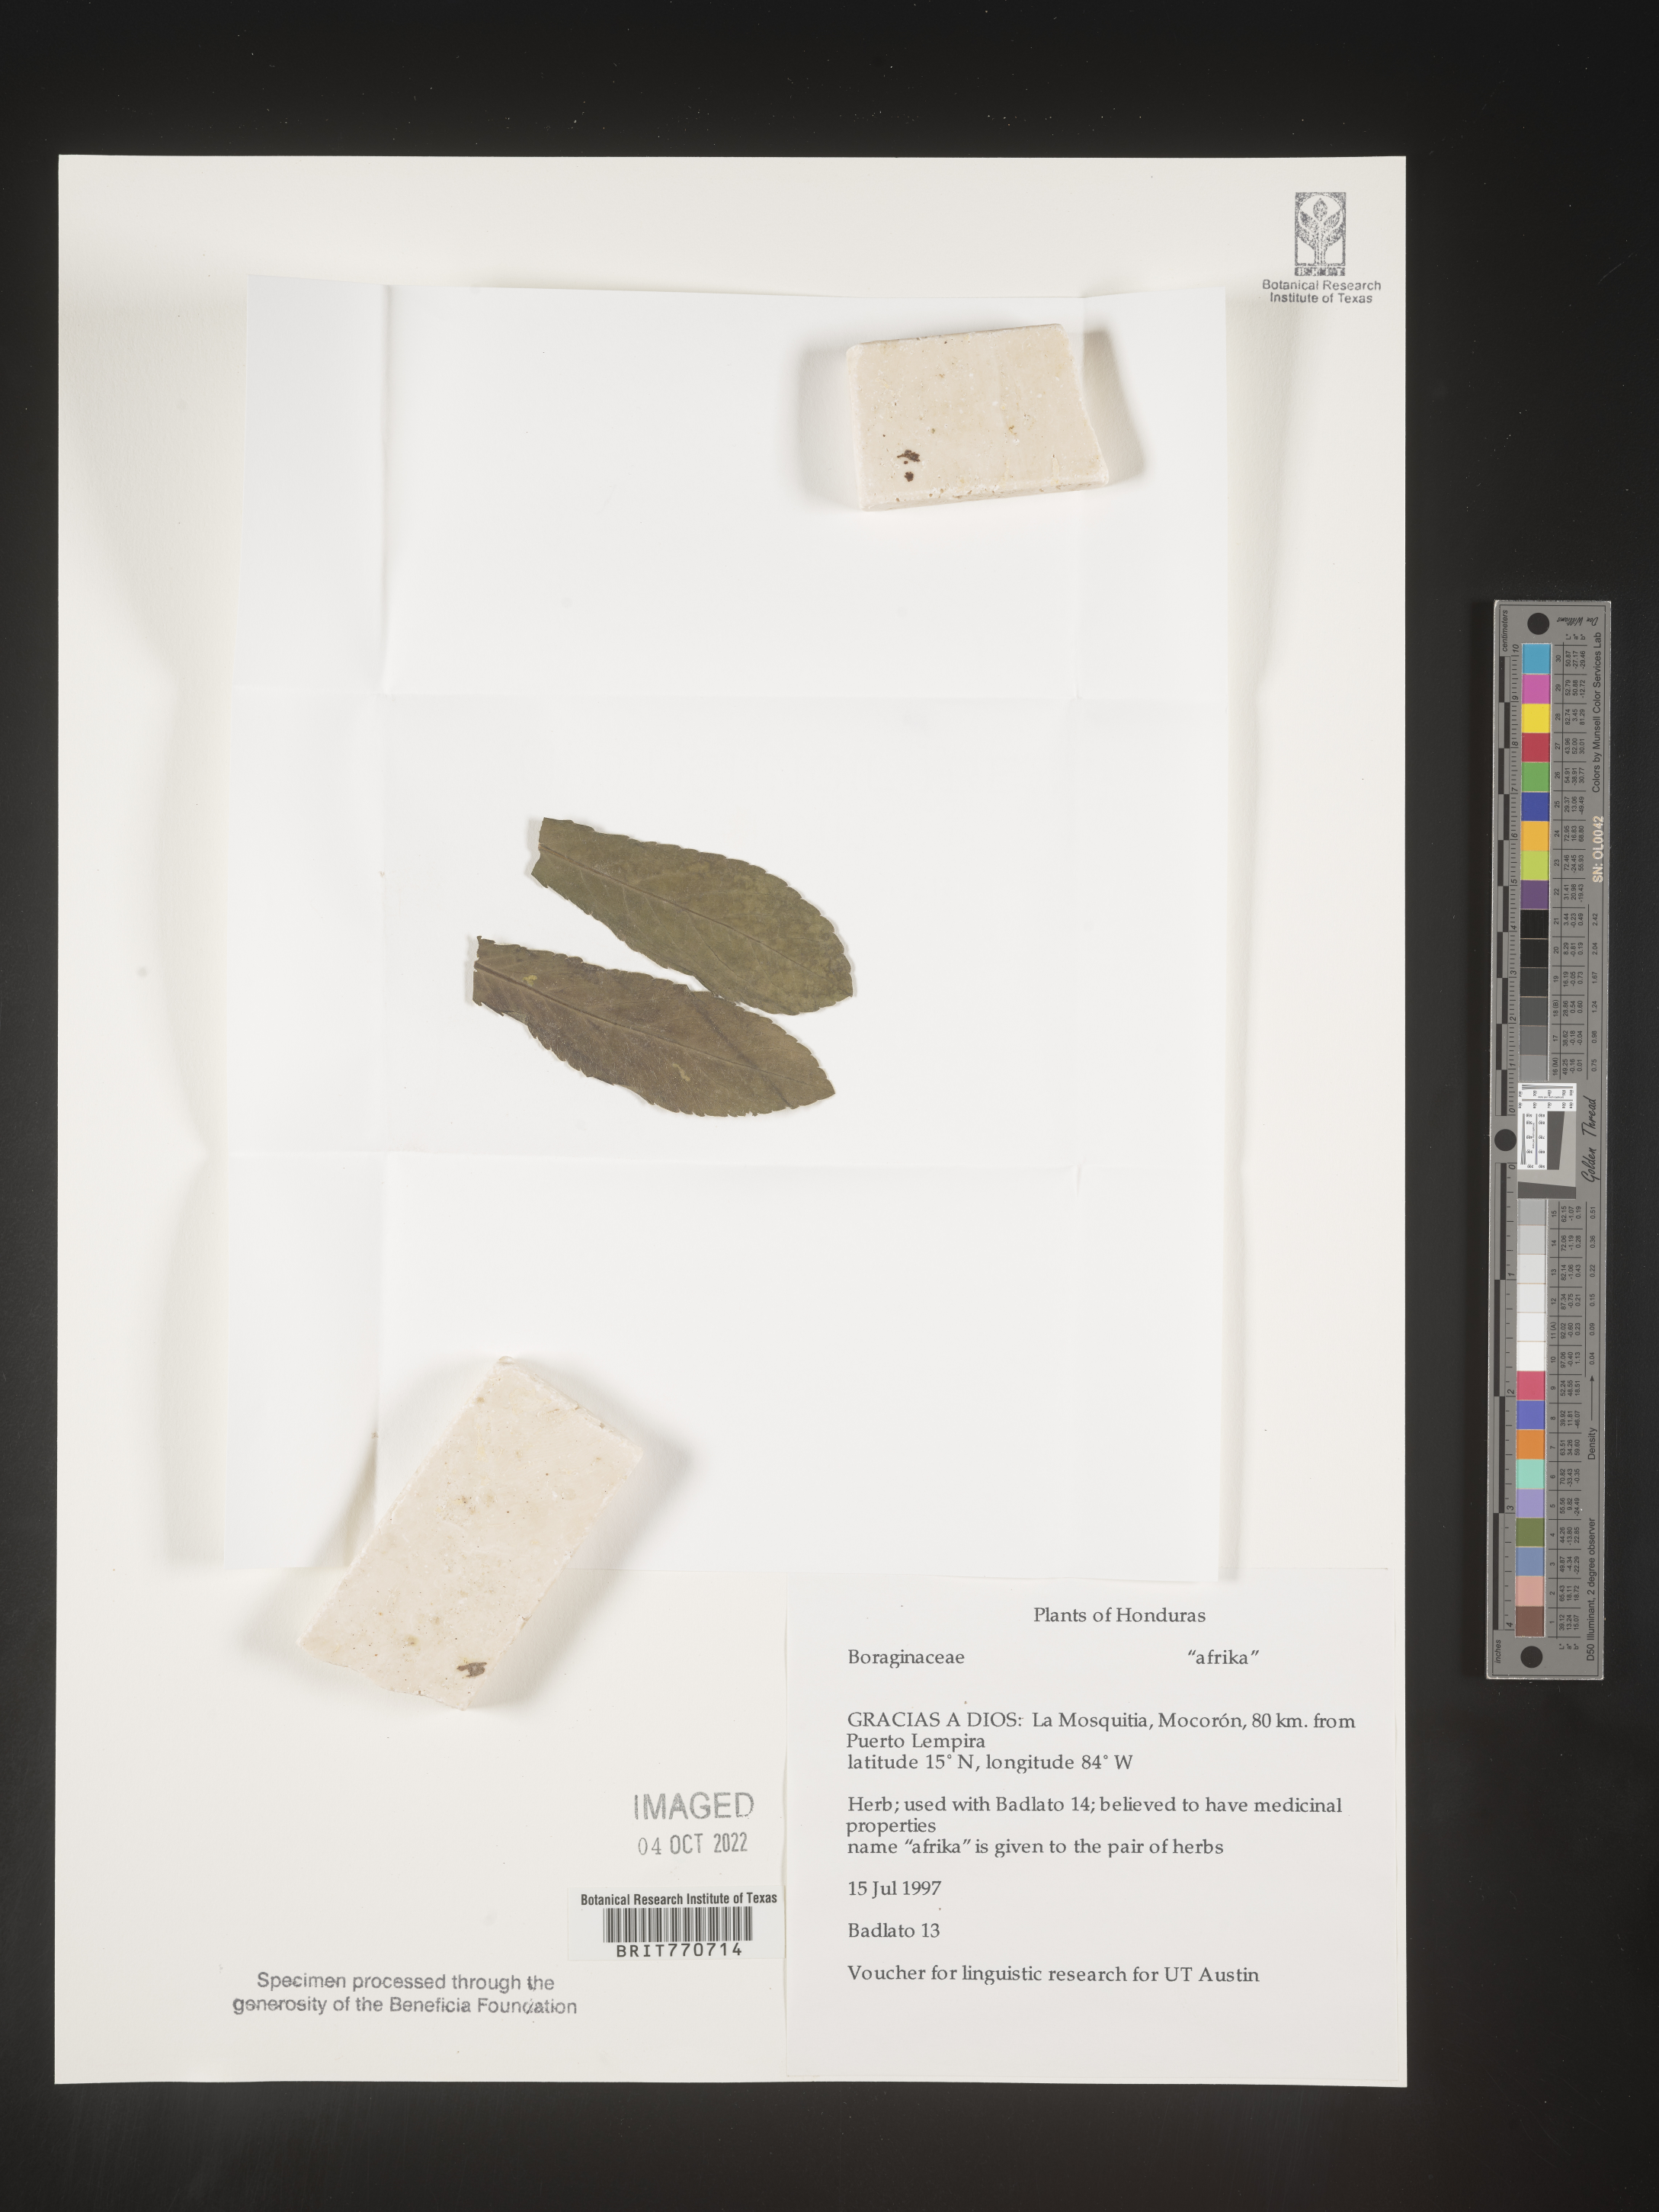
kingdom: Plantae
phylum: Tracheophyta
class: Magnoliopsida
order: Boraginales
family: Boraginaceae
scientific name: Boraginaceae
